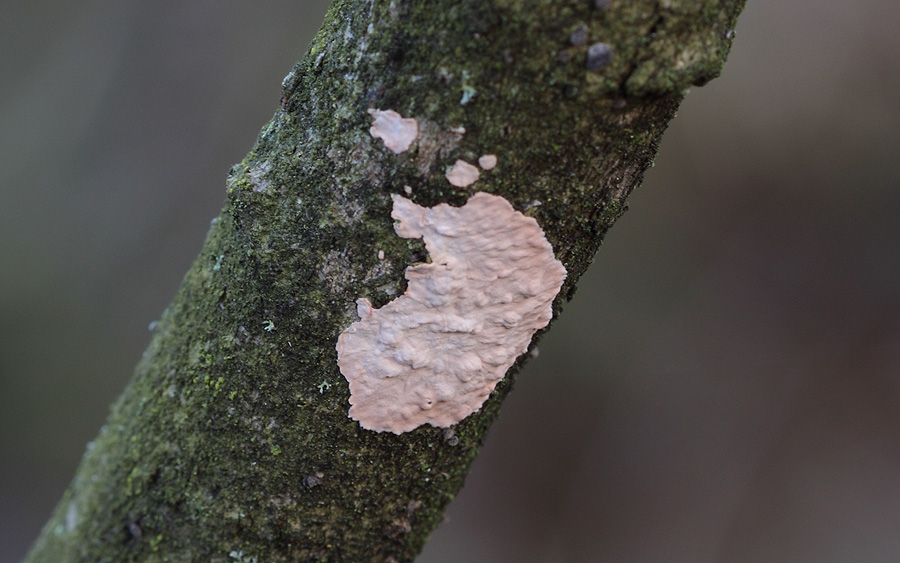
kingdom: Fungi
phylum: Basidiomycota
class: Agaricomycetes
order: Corticiales
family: Corticiaceae
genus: Corticium
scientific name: Corticium roseum
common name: rosa barkskind
